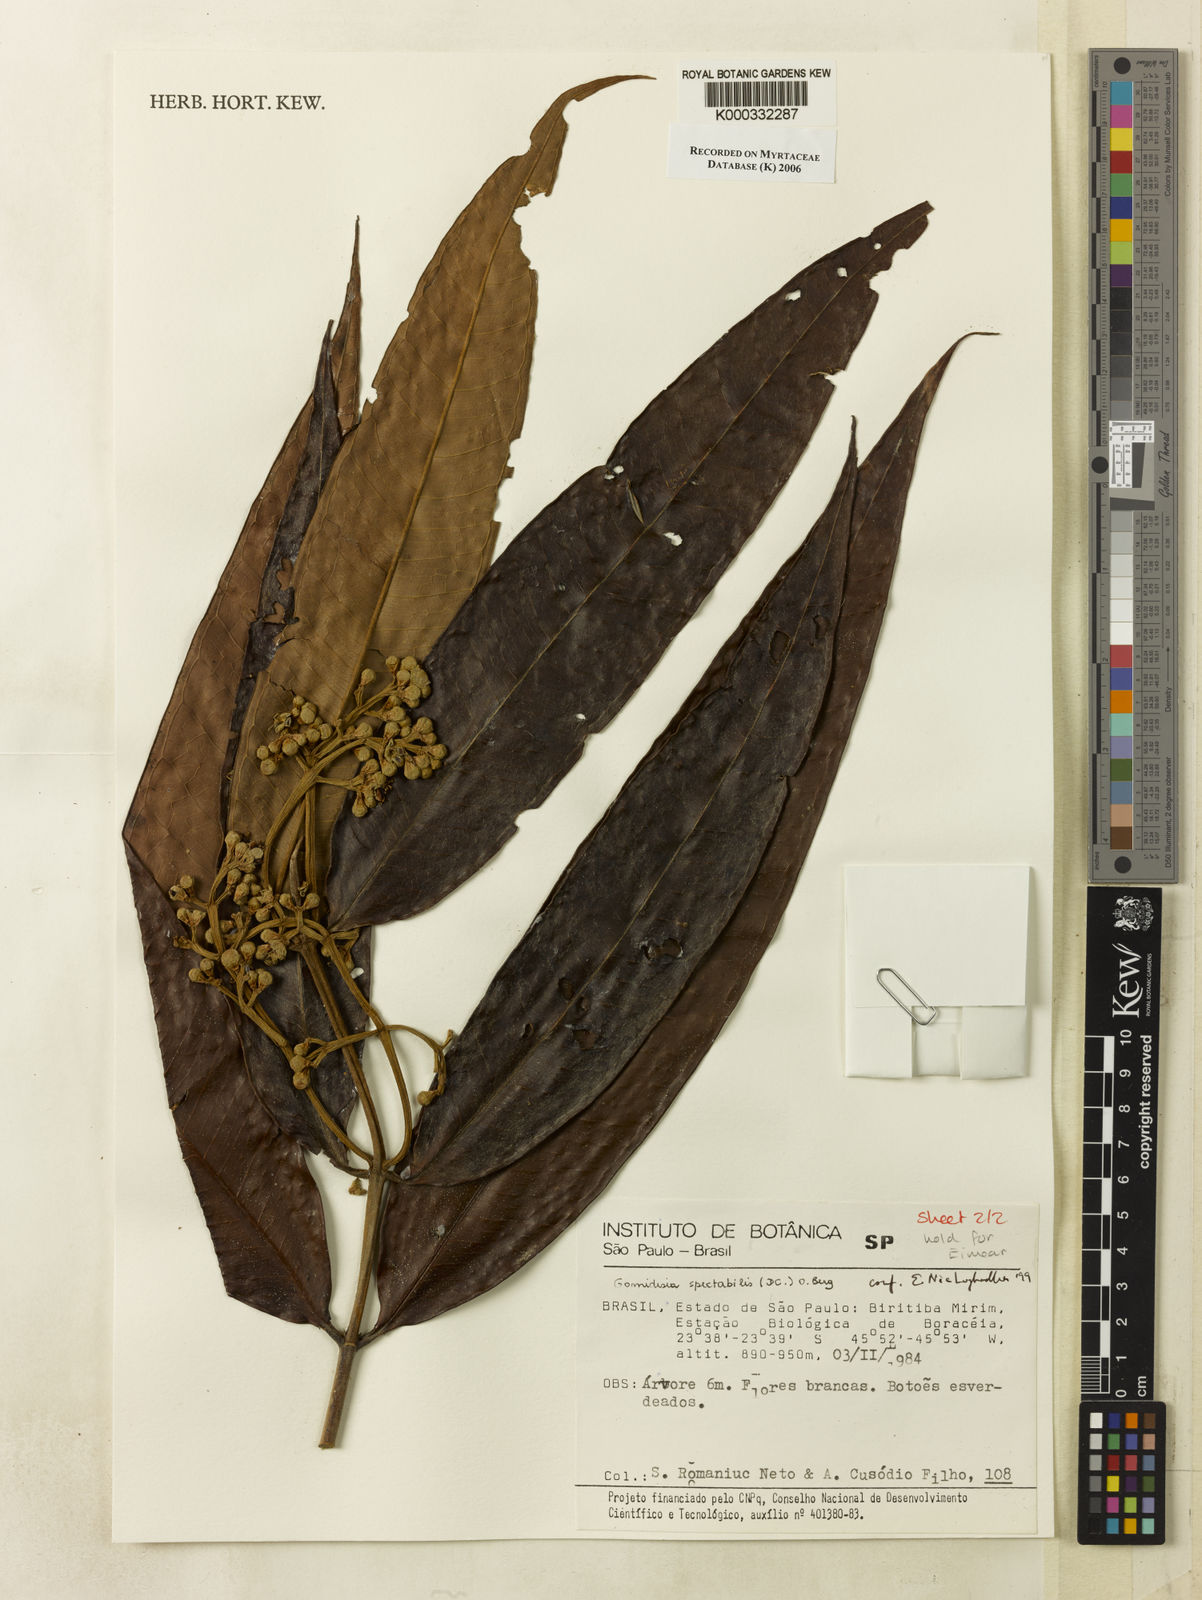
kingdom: Plantae
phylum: Tracheophyta
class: Magnoliopsida
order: Myrtales
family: Myrtaceae
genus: Myrcia
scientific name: Myrcia spectabilis
